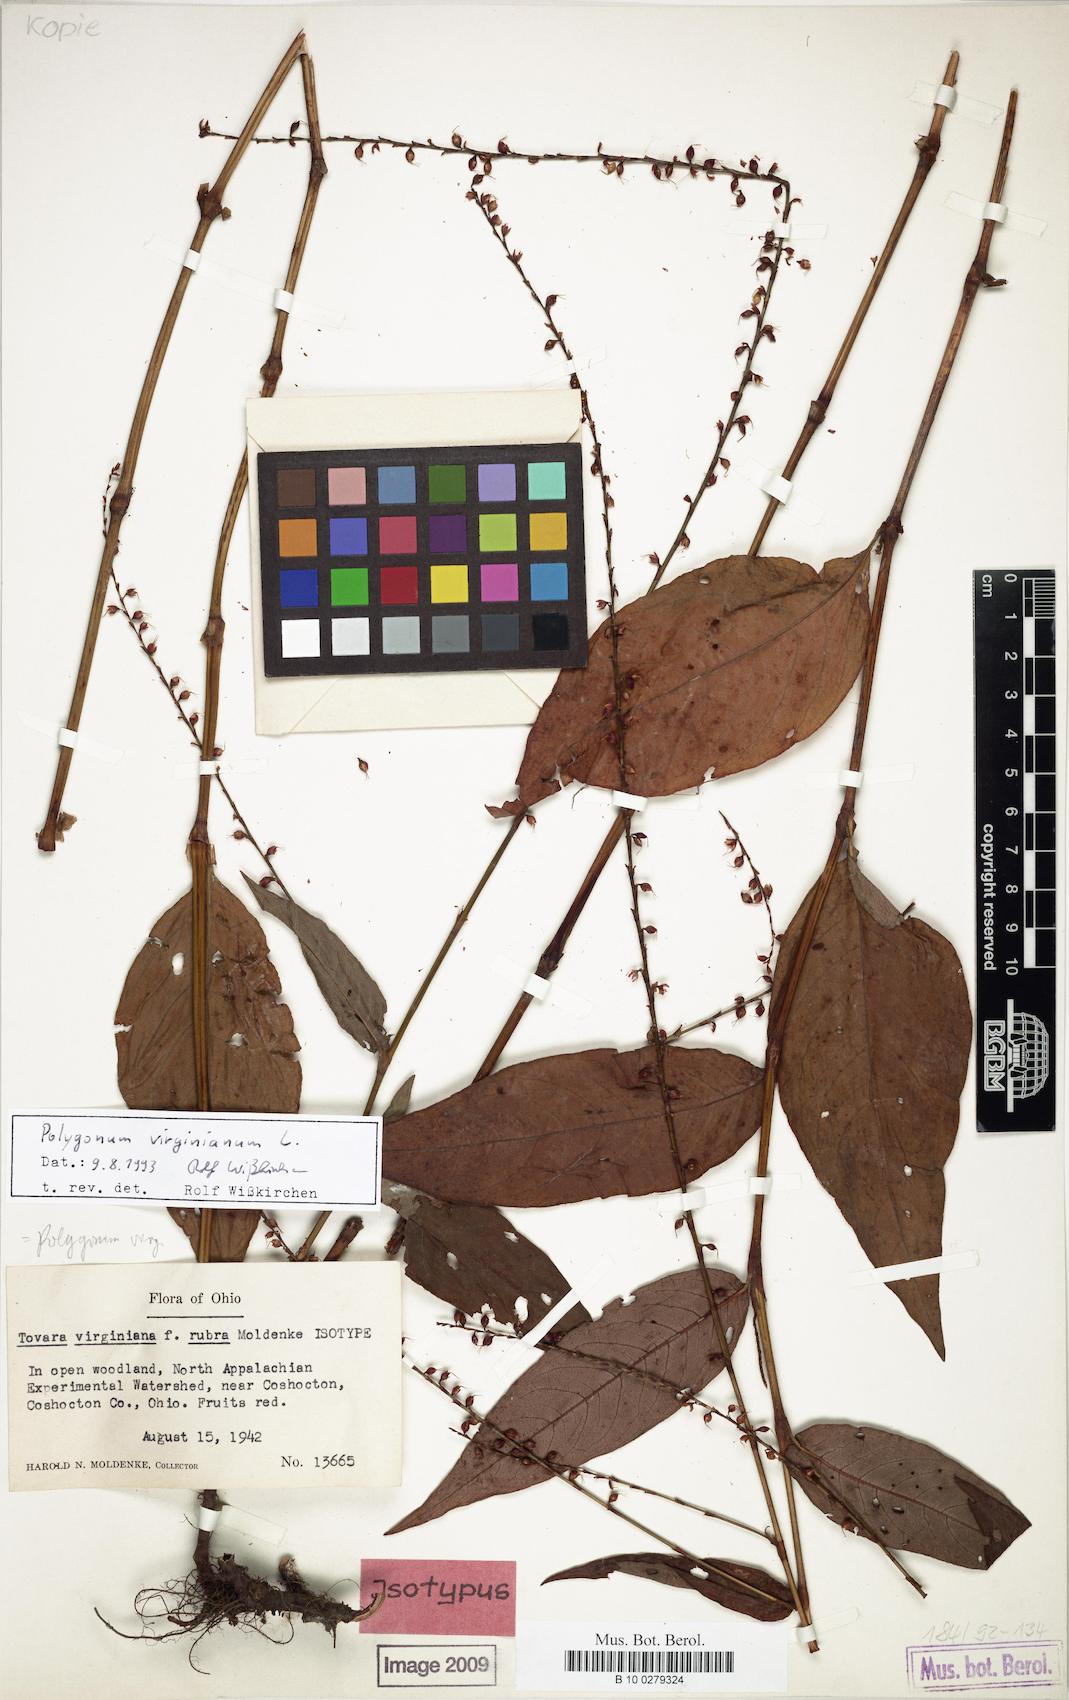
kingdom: Plantae
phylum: Tracheophyta
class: Magnoliopsida
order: Caryophyllales
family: Polygonaceae
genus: Persicaria
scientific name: Persicaria virginiana
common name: Jumpseed
